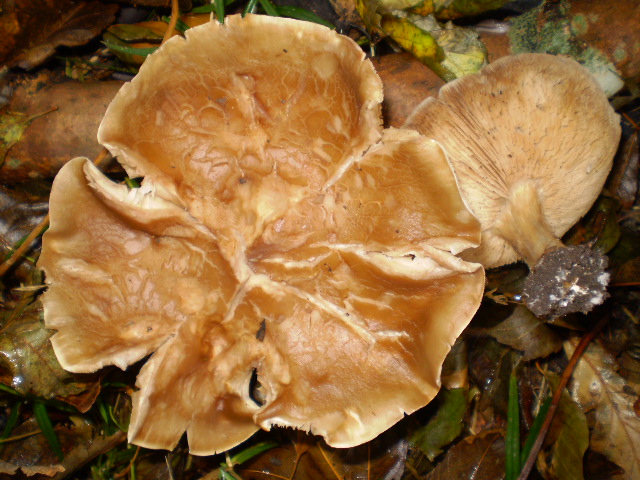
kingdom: Fungi
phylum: Basidiomycota
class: Agaricomycetes
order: Agaricales
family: Tricholomataceae
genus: Melanoleuca
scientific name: Melanoleuca cognata
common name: gyldengrå munkehat
